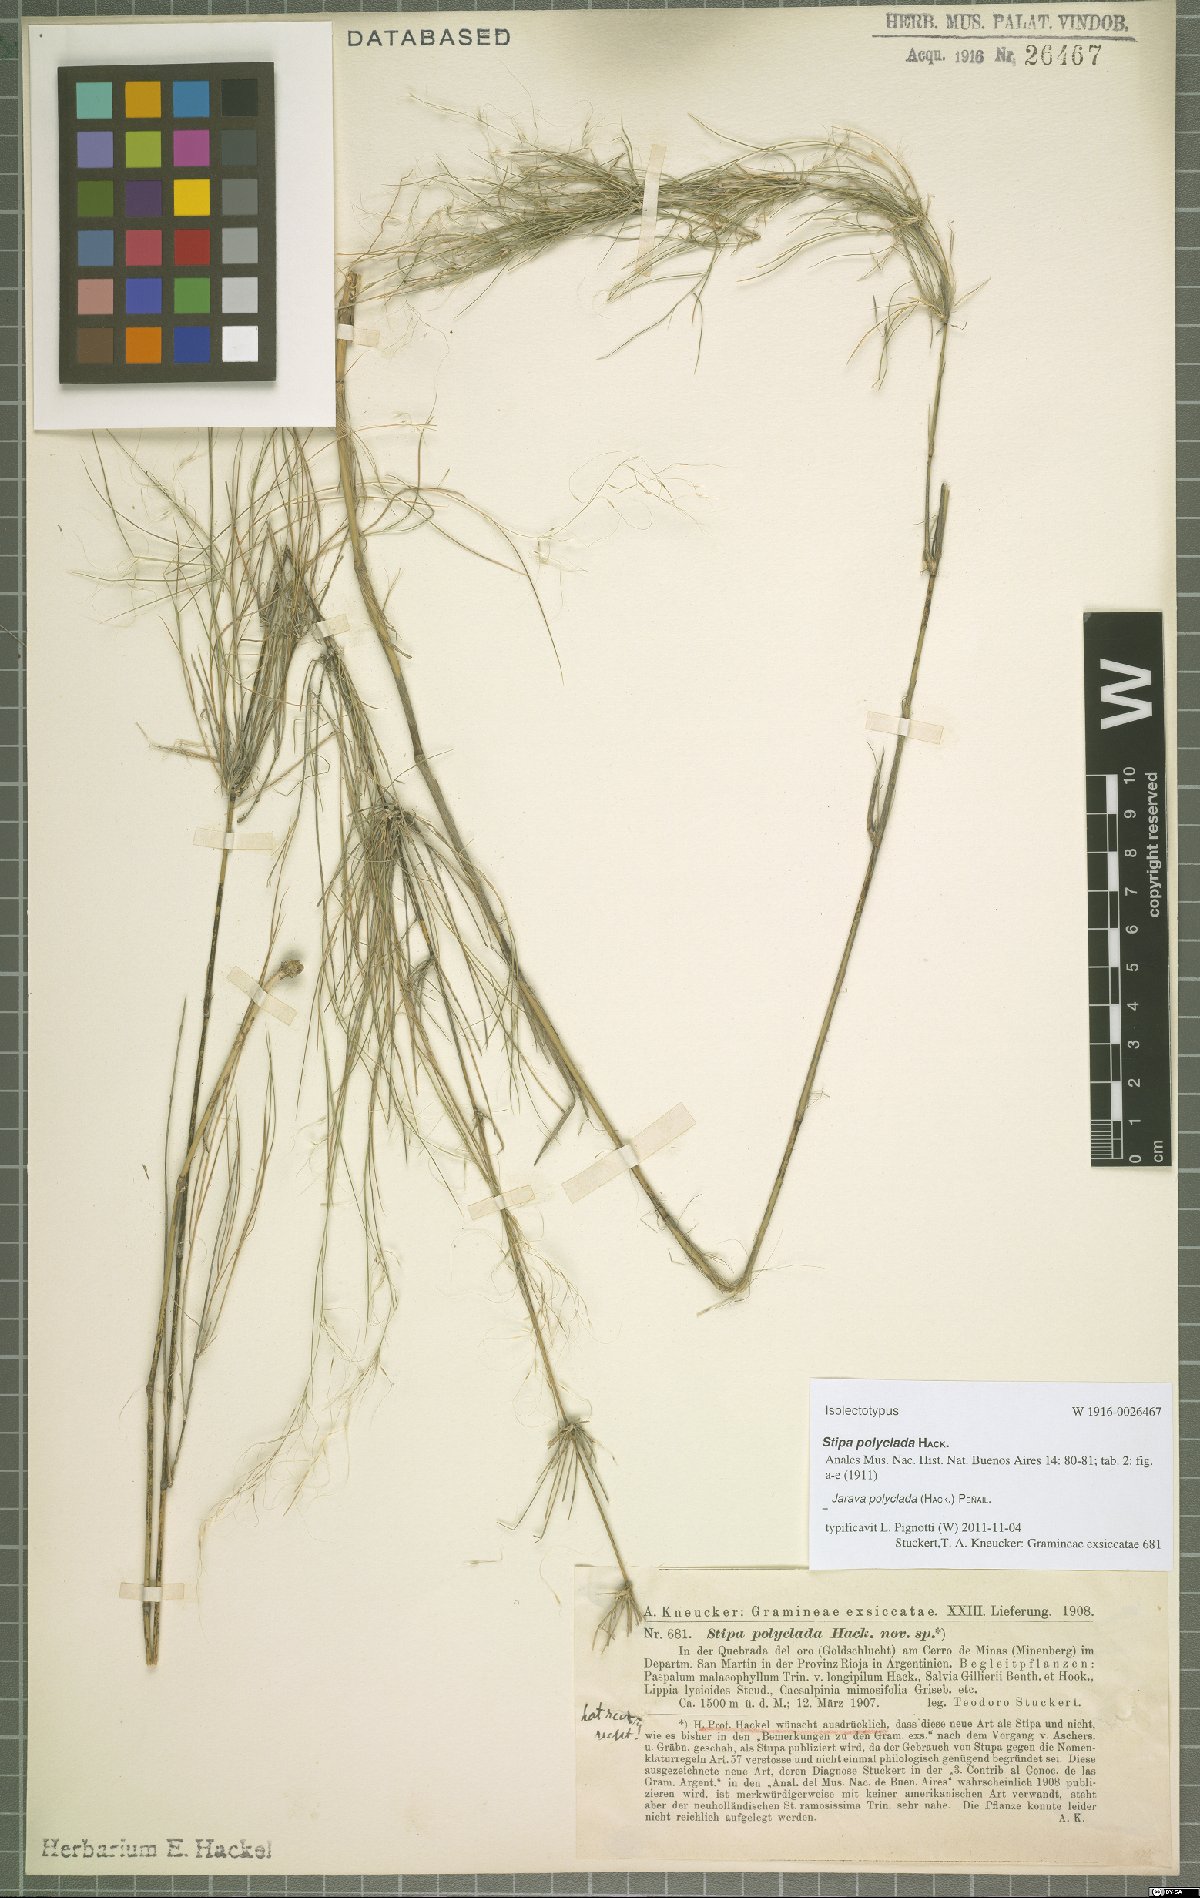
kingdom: Plantae
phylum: Tracheophyta
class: Liliopsida
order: Poales
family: Poaceae
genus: Stipa
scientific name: Stipa polyclada
